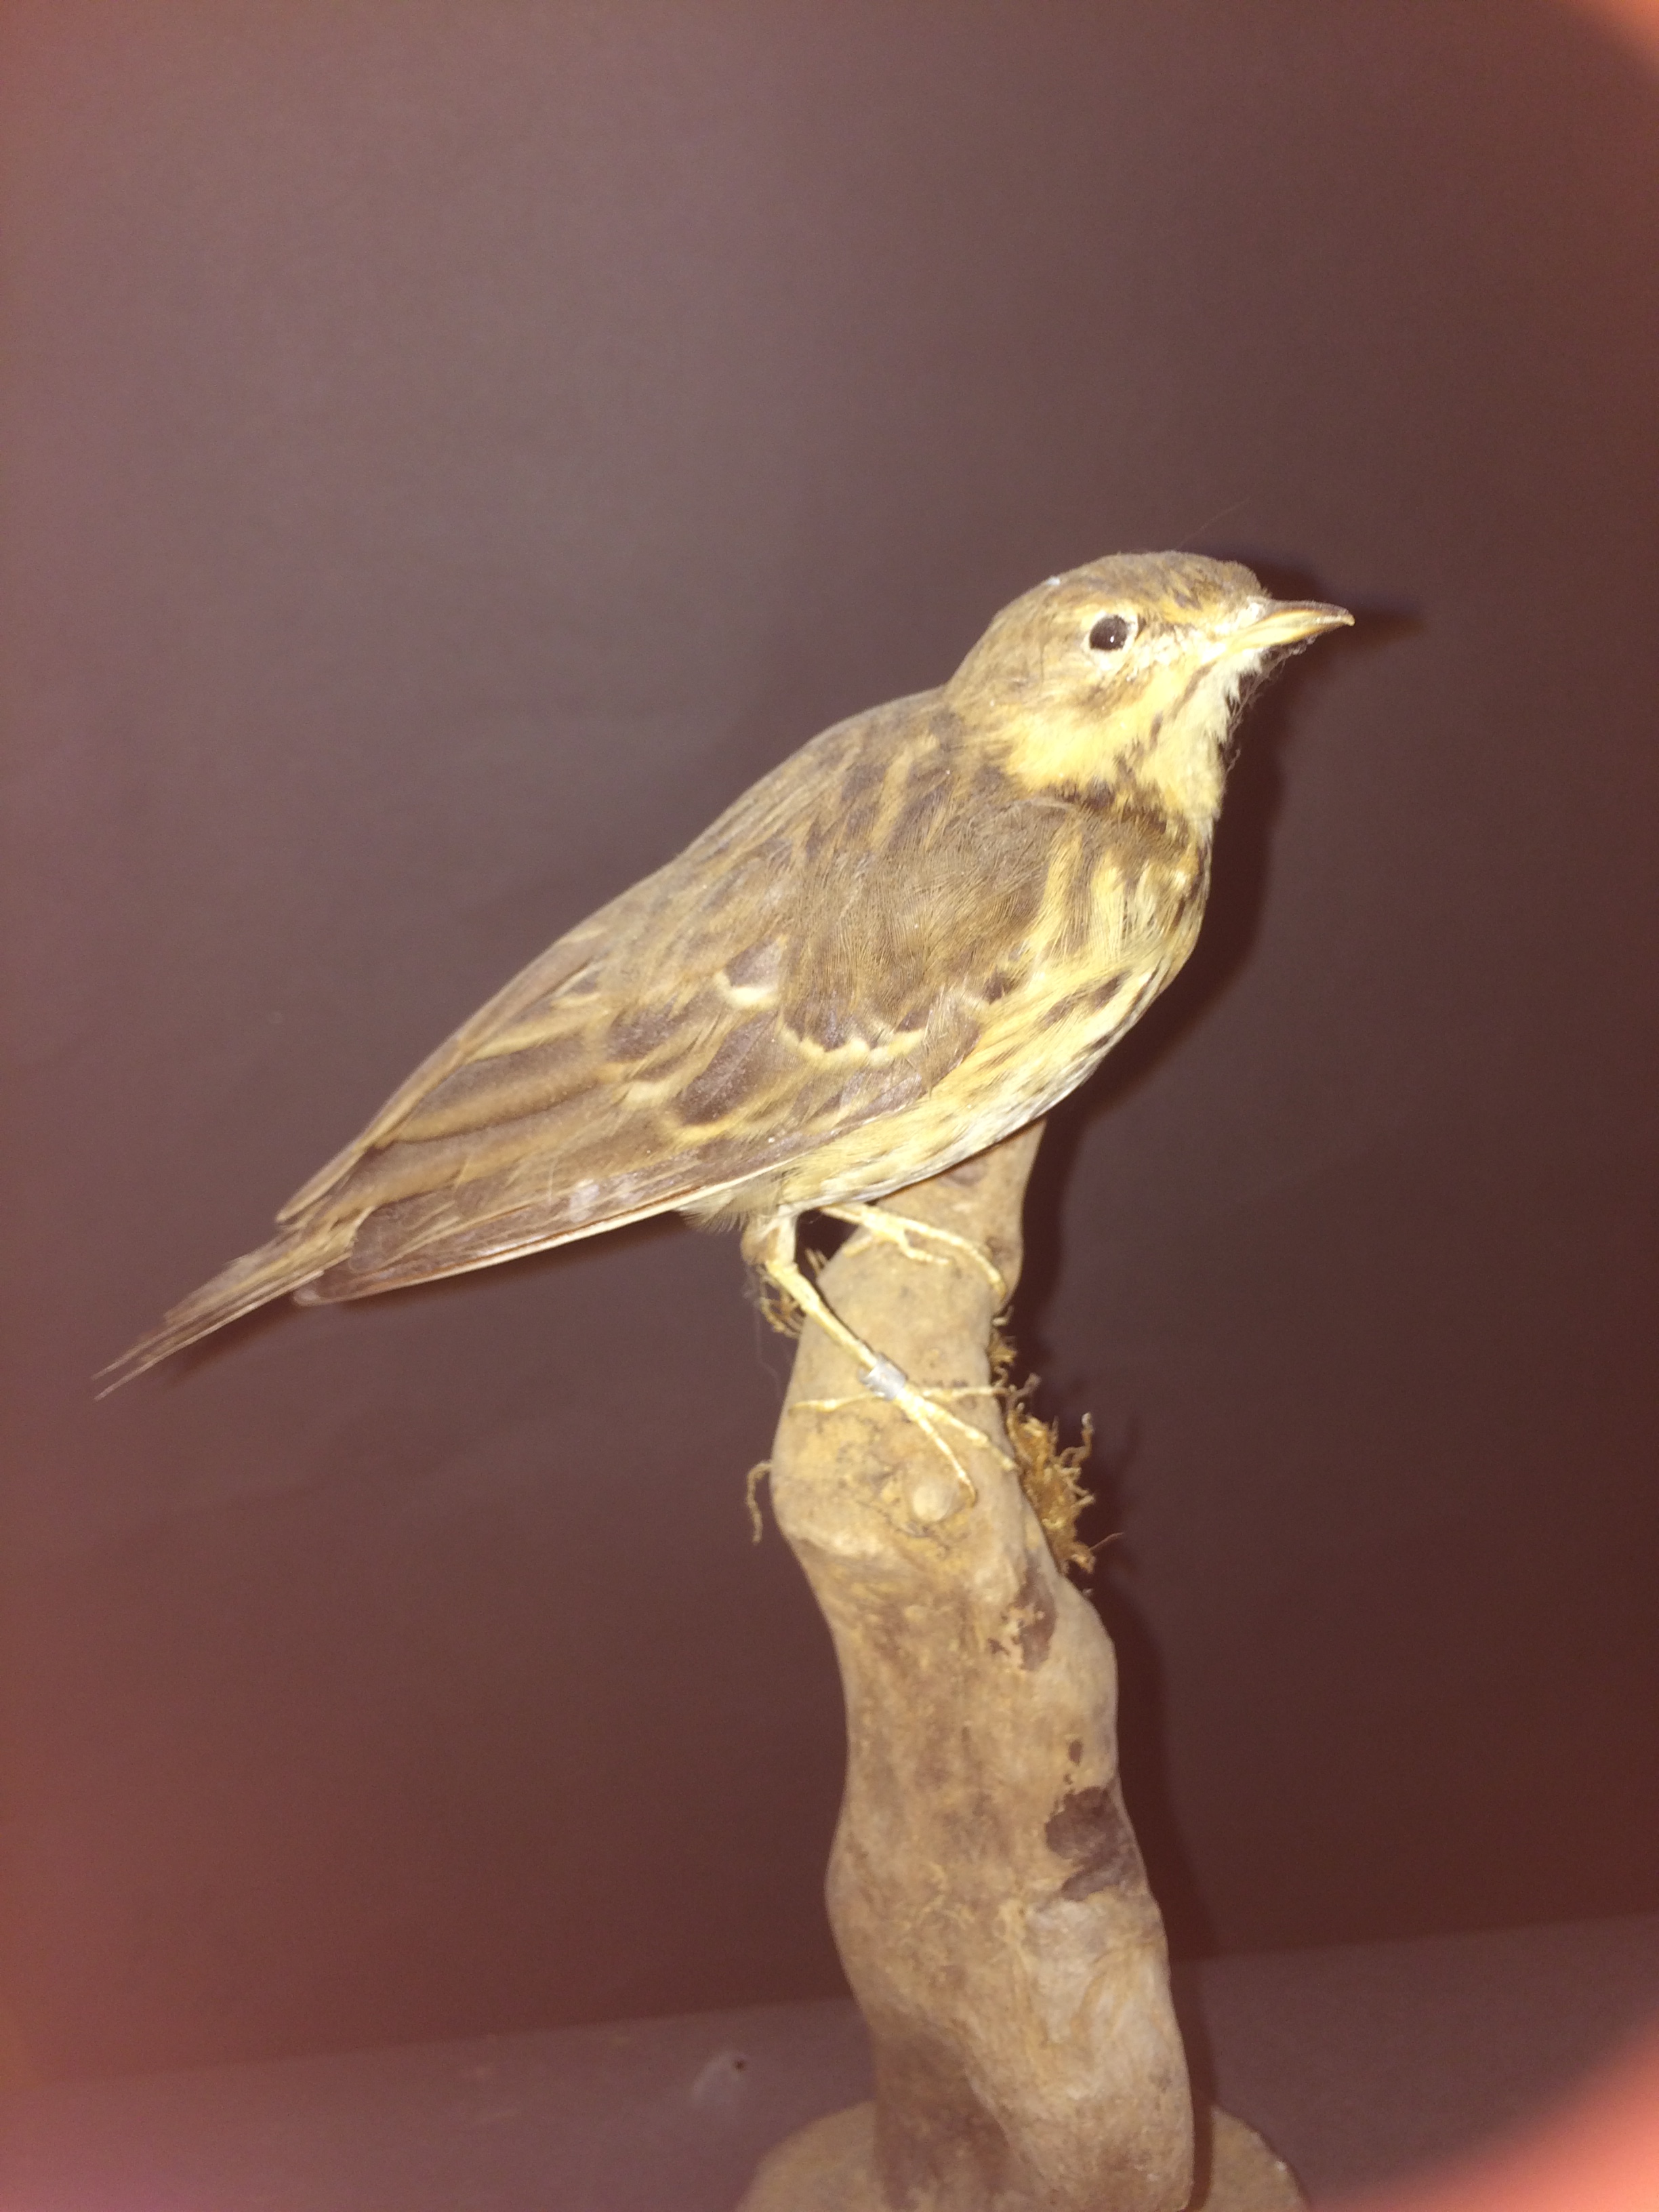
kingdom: Animalia
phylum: Chordata
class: Aves
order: Passeriformes
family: Motacillidae
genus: Anthus
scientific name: Anthus trivialis
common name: Tree pipit
